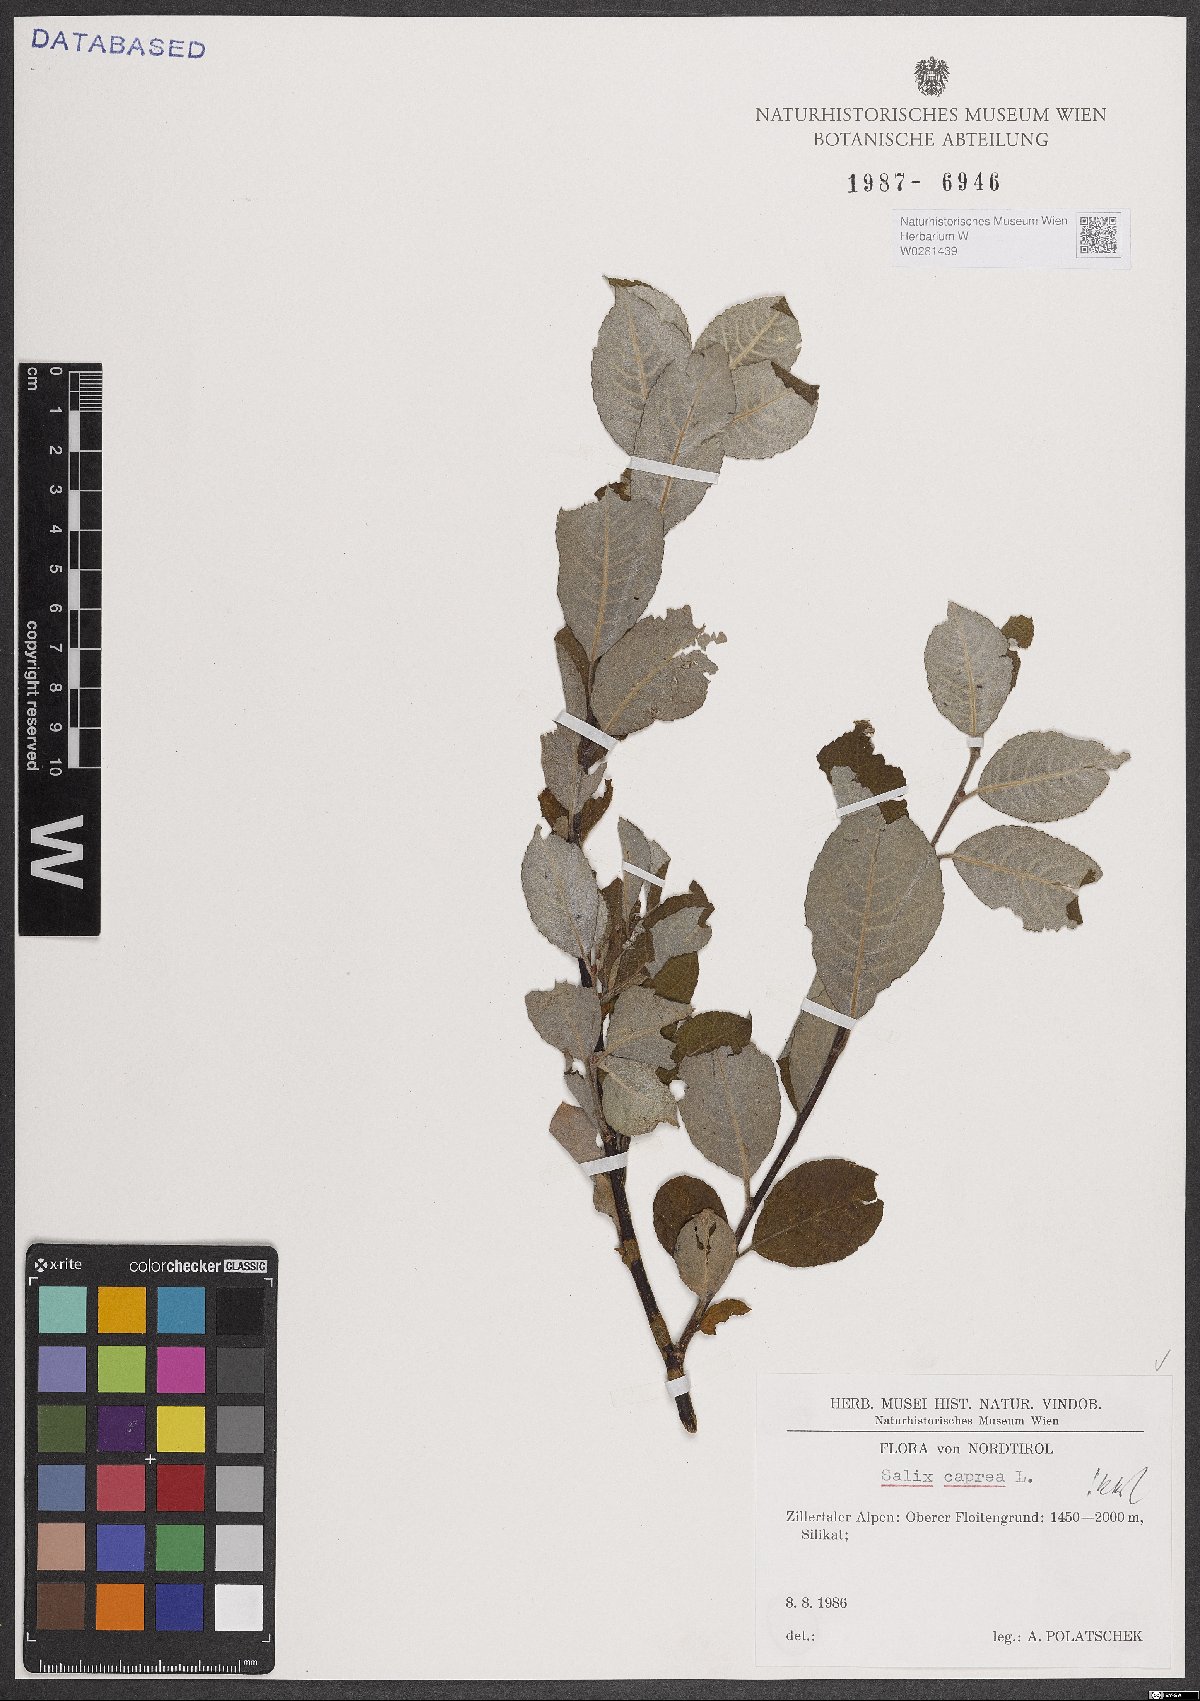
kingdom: Plantae
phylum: Tracheophyta
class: Magnoliopsida
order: Malpighiales
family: Salicaceae
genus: Salix
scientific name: Salix caprea
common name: Goat willow
